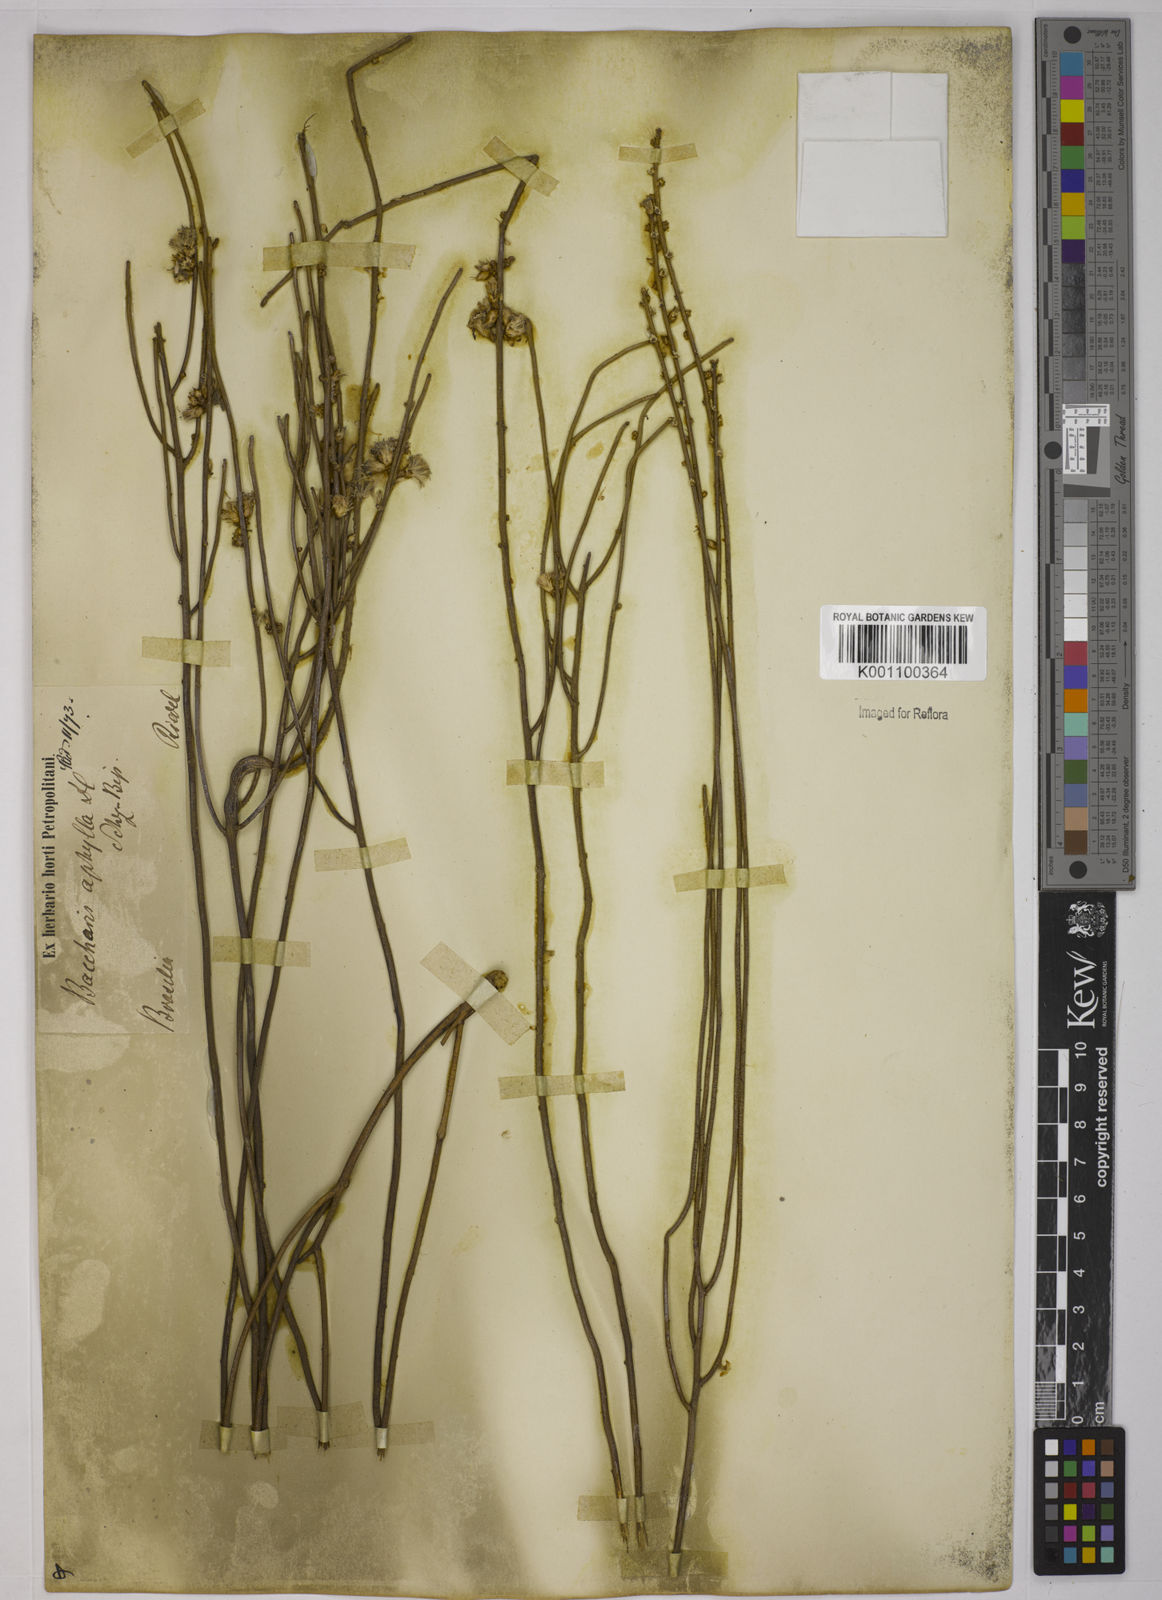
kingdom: Plantae
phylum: Tracheophyta
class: Magnoliopsida
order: Asterales
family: Asteraceae
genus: Baccharis
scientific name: Baccharis aphylla
